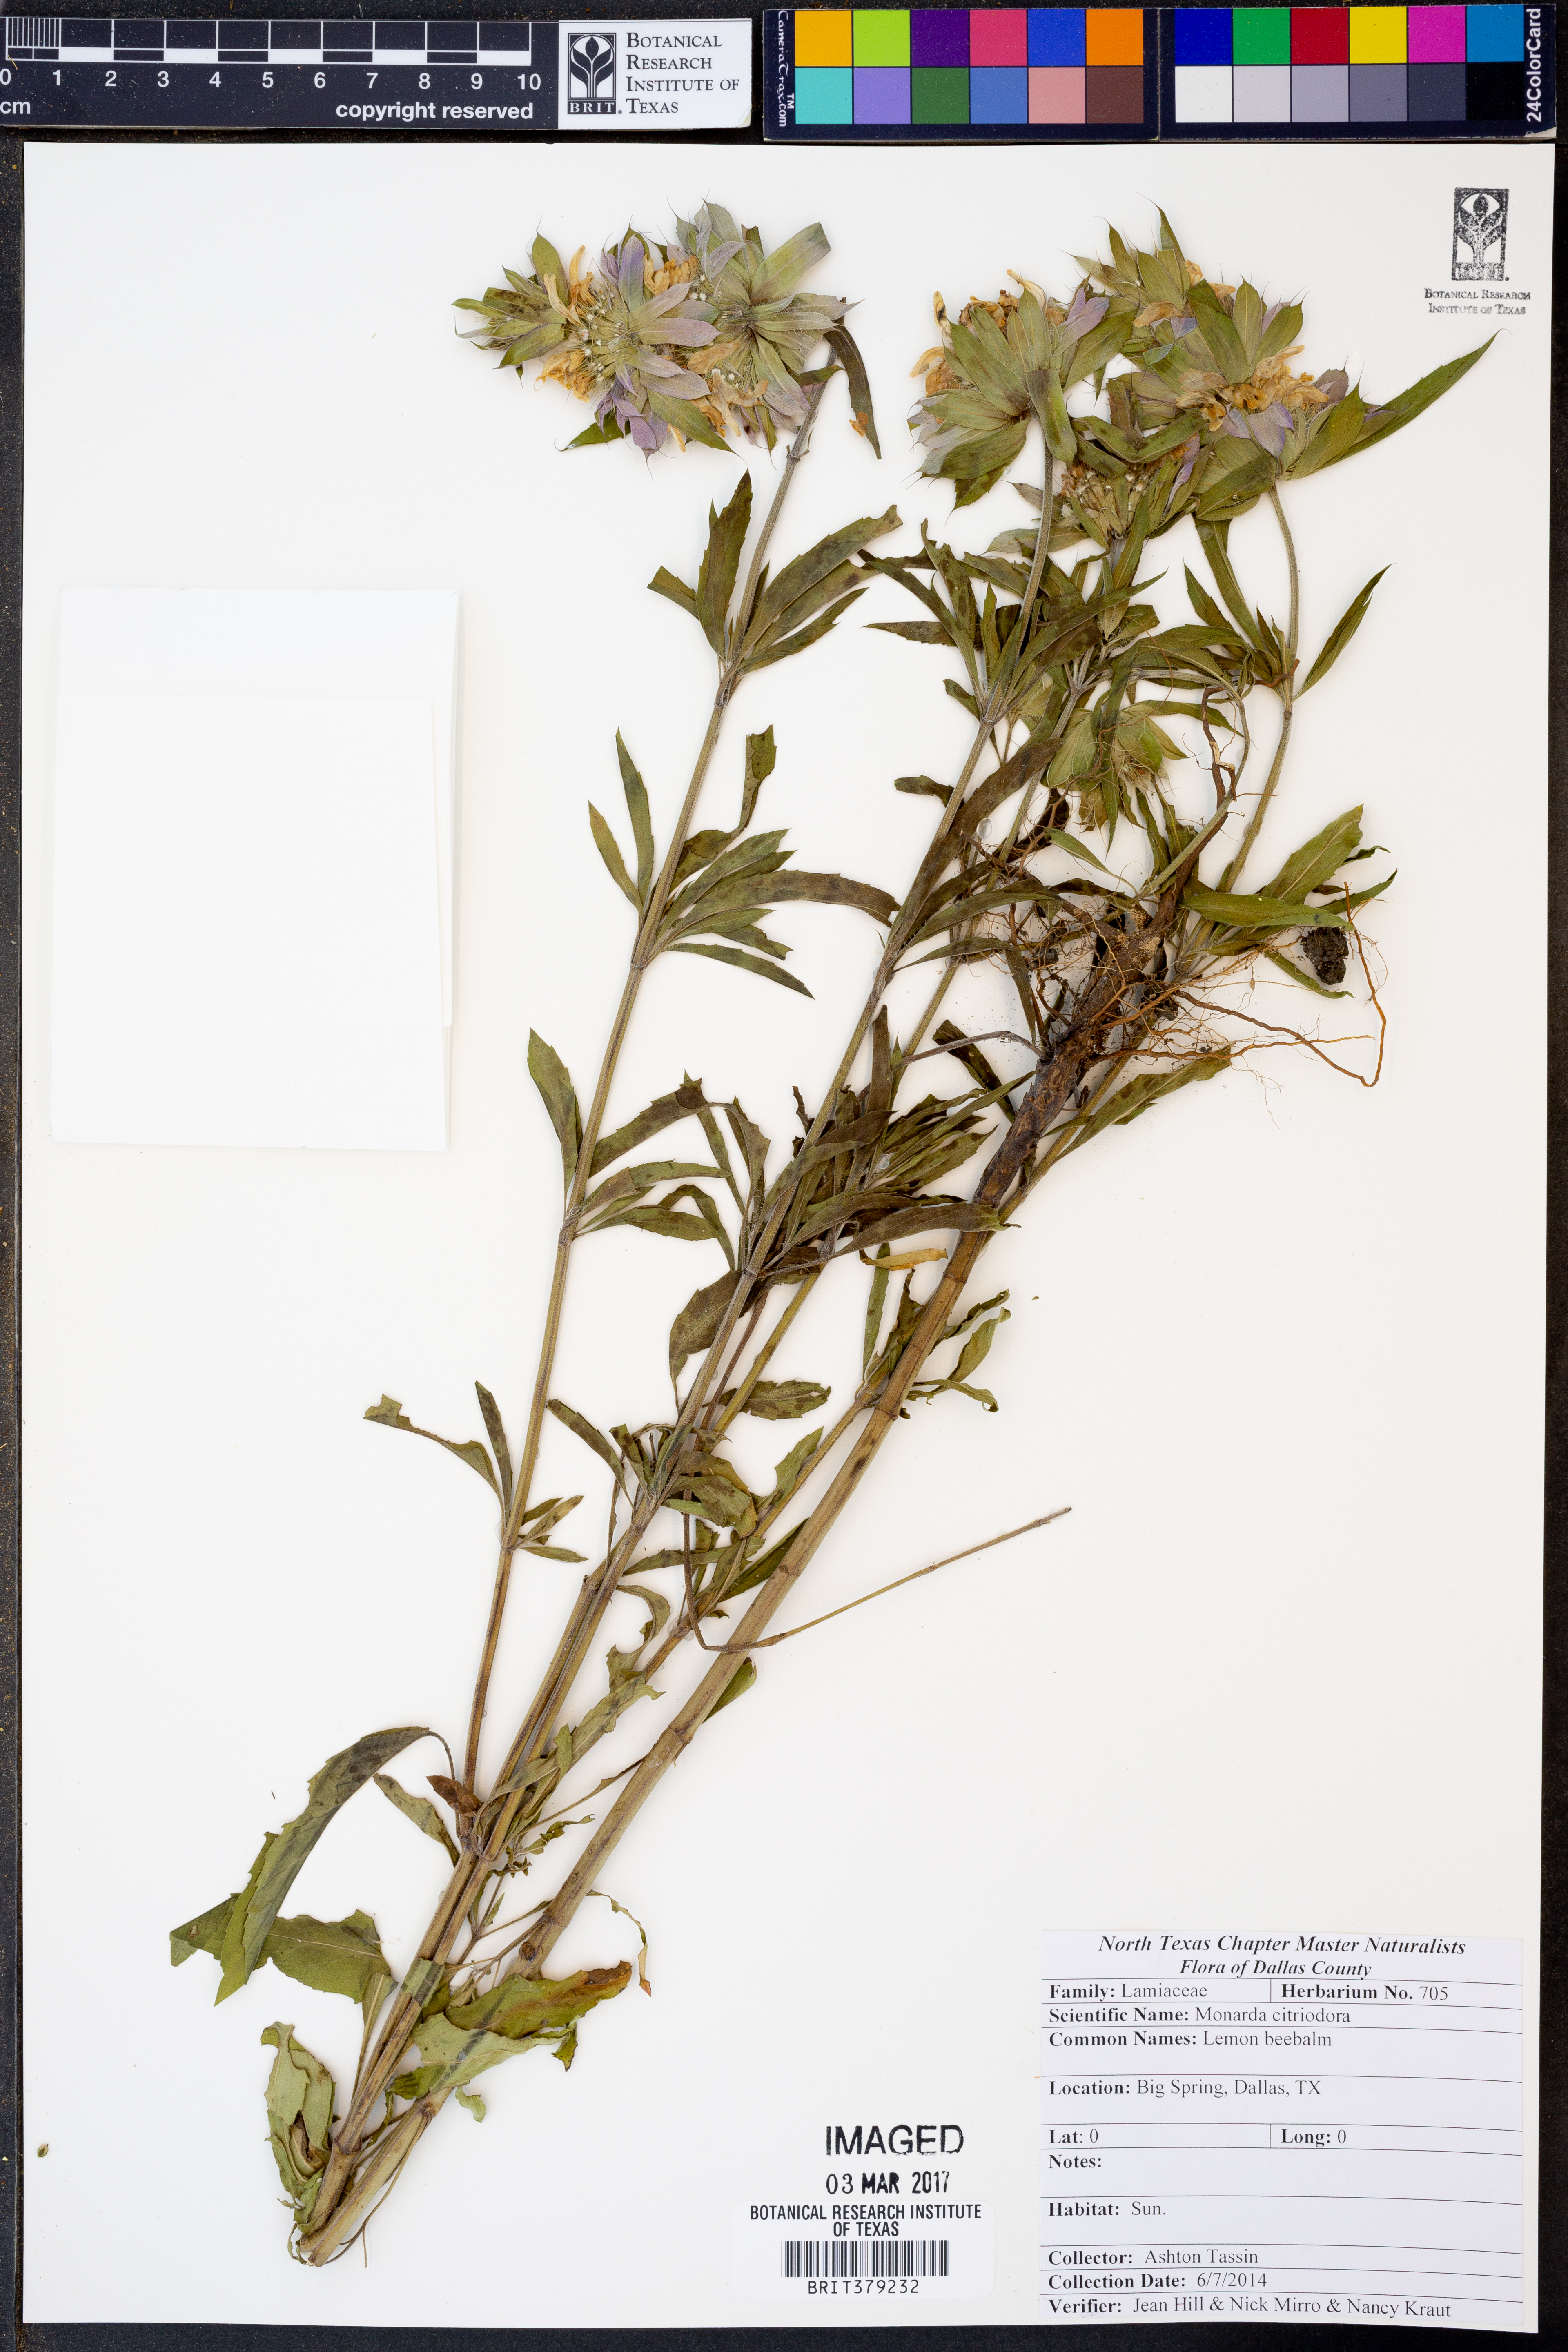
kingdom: Plantae
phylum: Tracheophyta
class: Magnoliopsida
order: Lamiales
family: Lamiaceae
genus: Monarda
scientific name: Monarda citriodora
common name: Lemon beebalm
